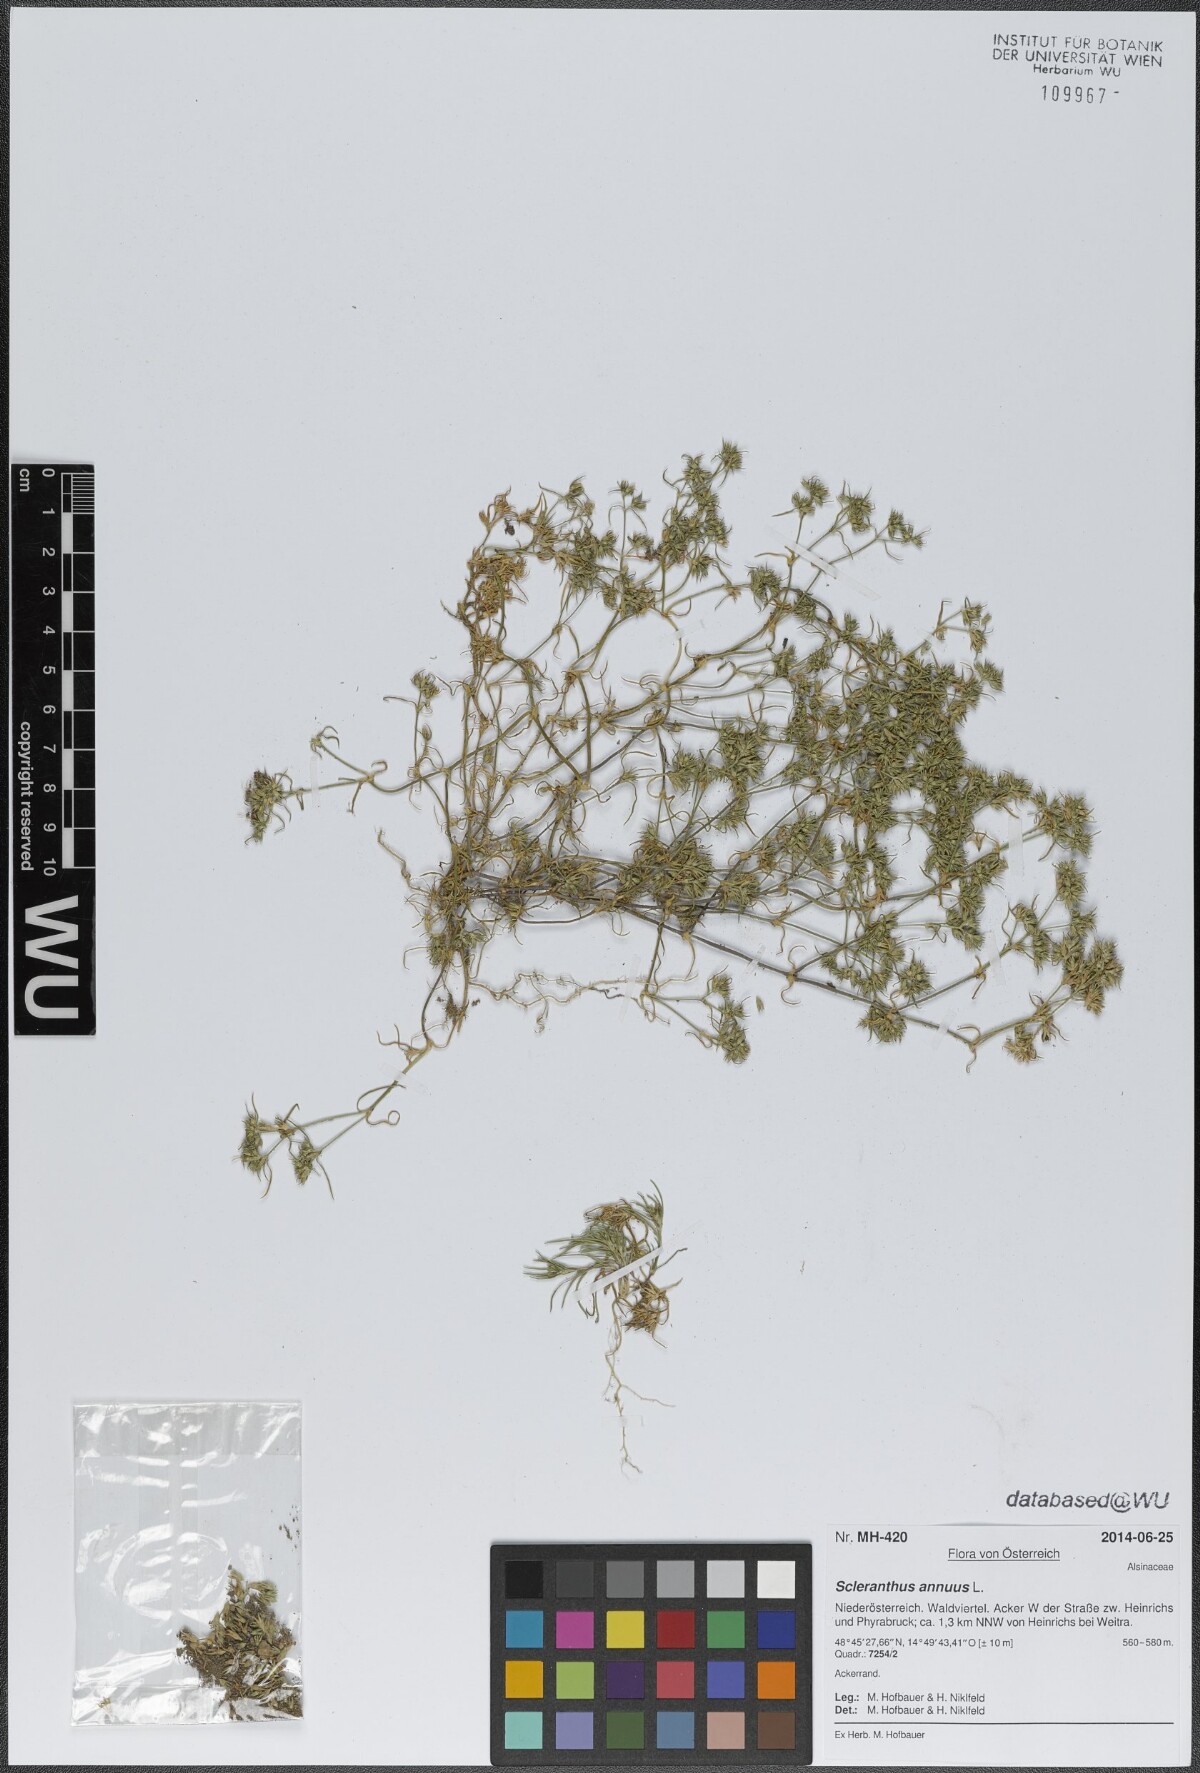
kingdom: Plantae
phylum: Tracheophyta
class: Magnoliopsida
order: Caryophyllales
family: Caryophyllaceae
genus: Scleranthus
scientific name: Scleranthus annuus
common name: Annual knawel
